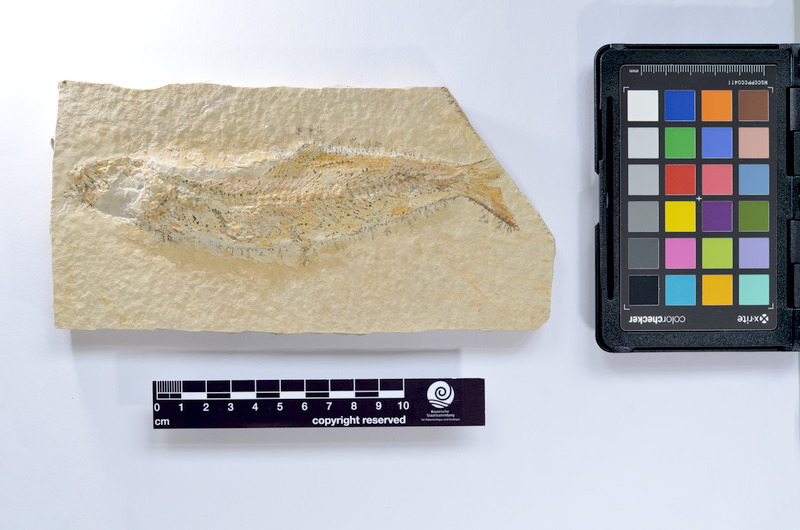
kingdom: Animalia
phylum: Chordata
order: Elopiformes
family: Anaethalionidae
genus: Anaethalion
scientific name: Anaethalion knorri
